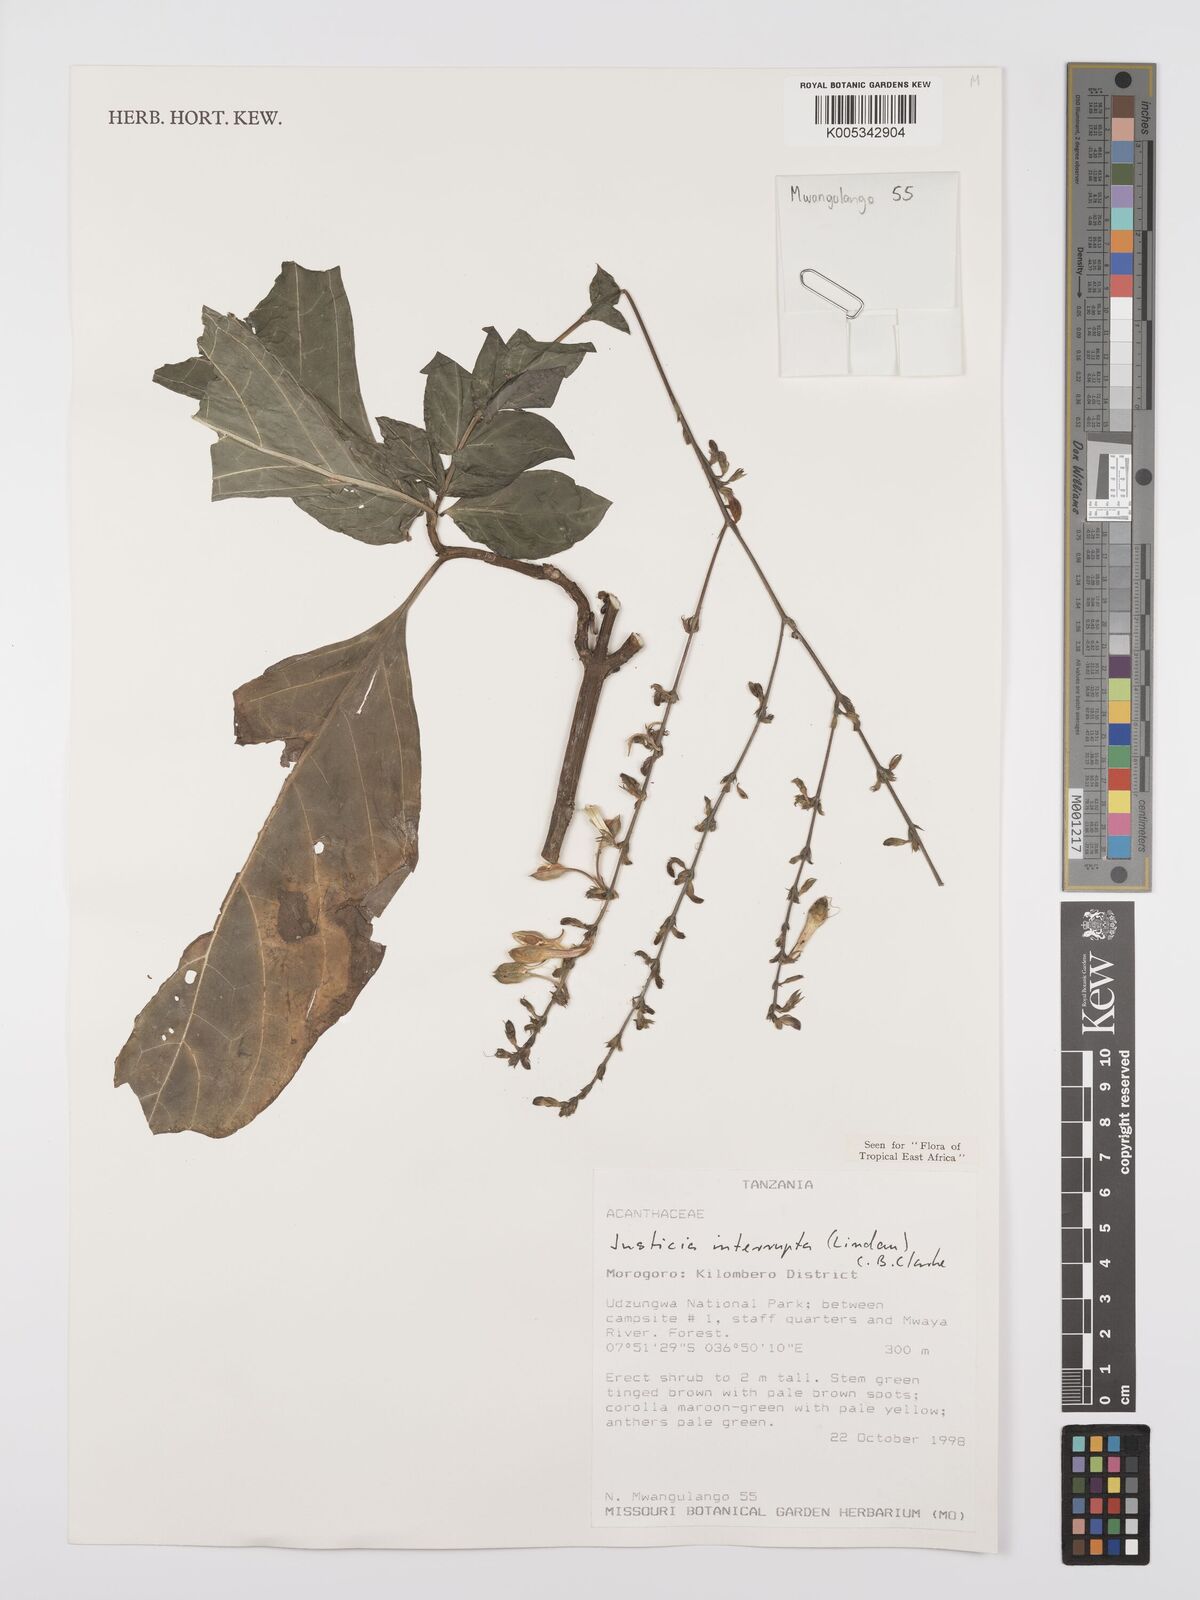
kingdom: Plantae
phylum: Tracheophyta
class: Magnoliopsida
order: Lamiales
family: Acanthaceae
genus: Justicia
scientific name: Justicia plectranthoides
